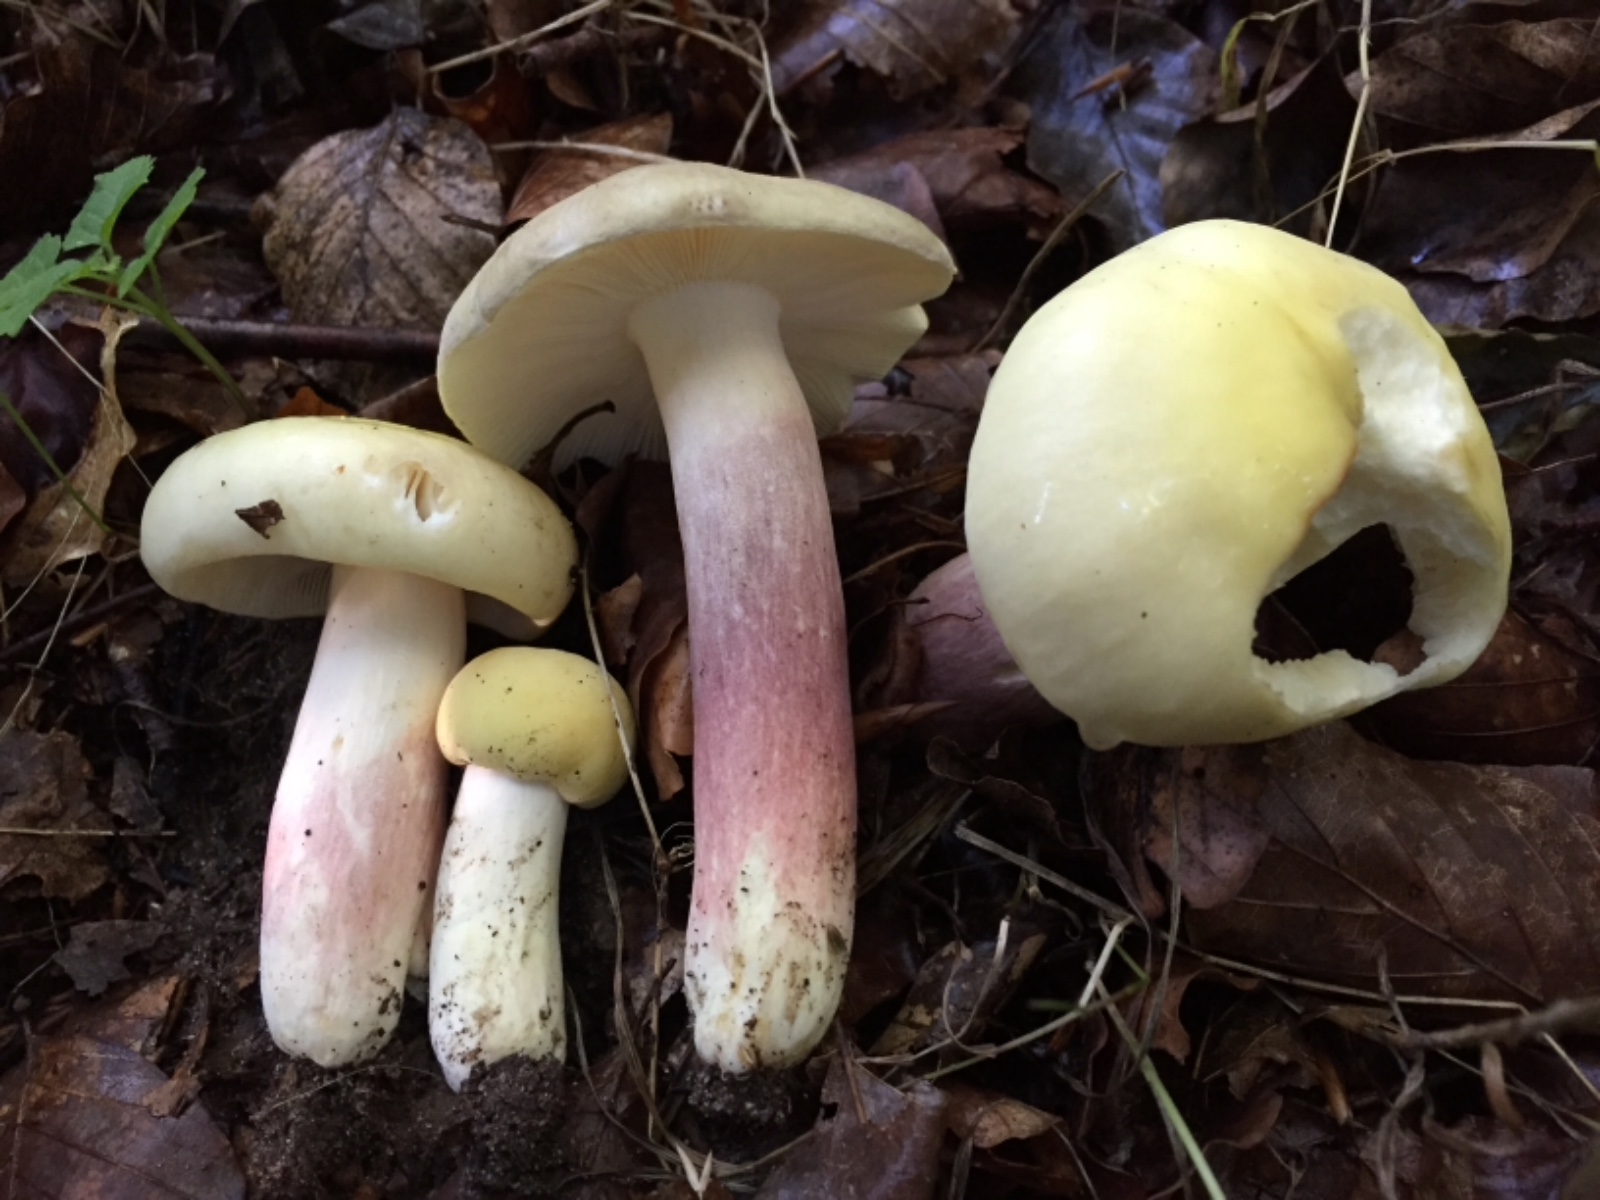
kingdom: Fungi
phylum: Basidiomycota
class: Agaricomycetes
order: Russulales
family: Russulaceae
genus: Russula
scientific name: Russula violeipes
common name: ferskengul skørhat
